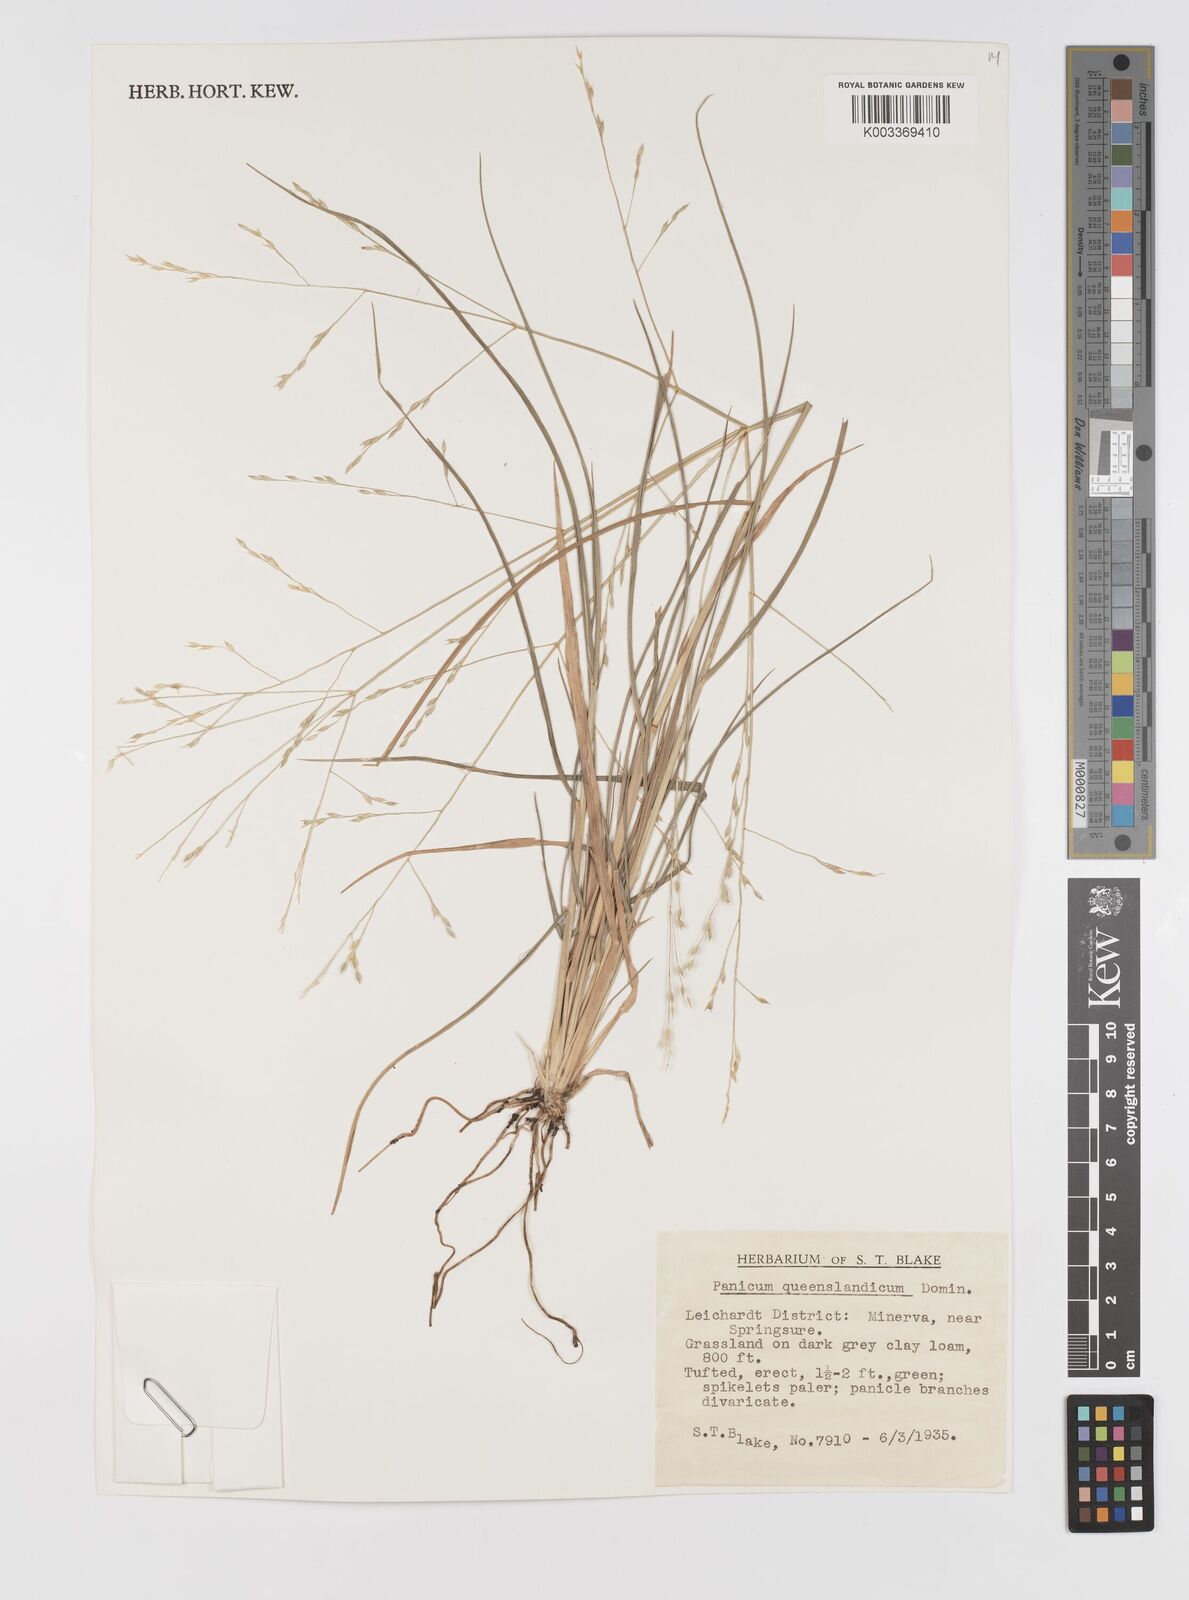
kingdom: Plantae
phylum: Tracheophyta
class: Liliopsida
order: Poales
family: Poaceae
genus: Panicum
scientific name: Panicum queenslandicum
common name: Yabila grass
